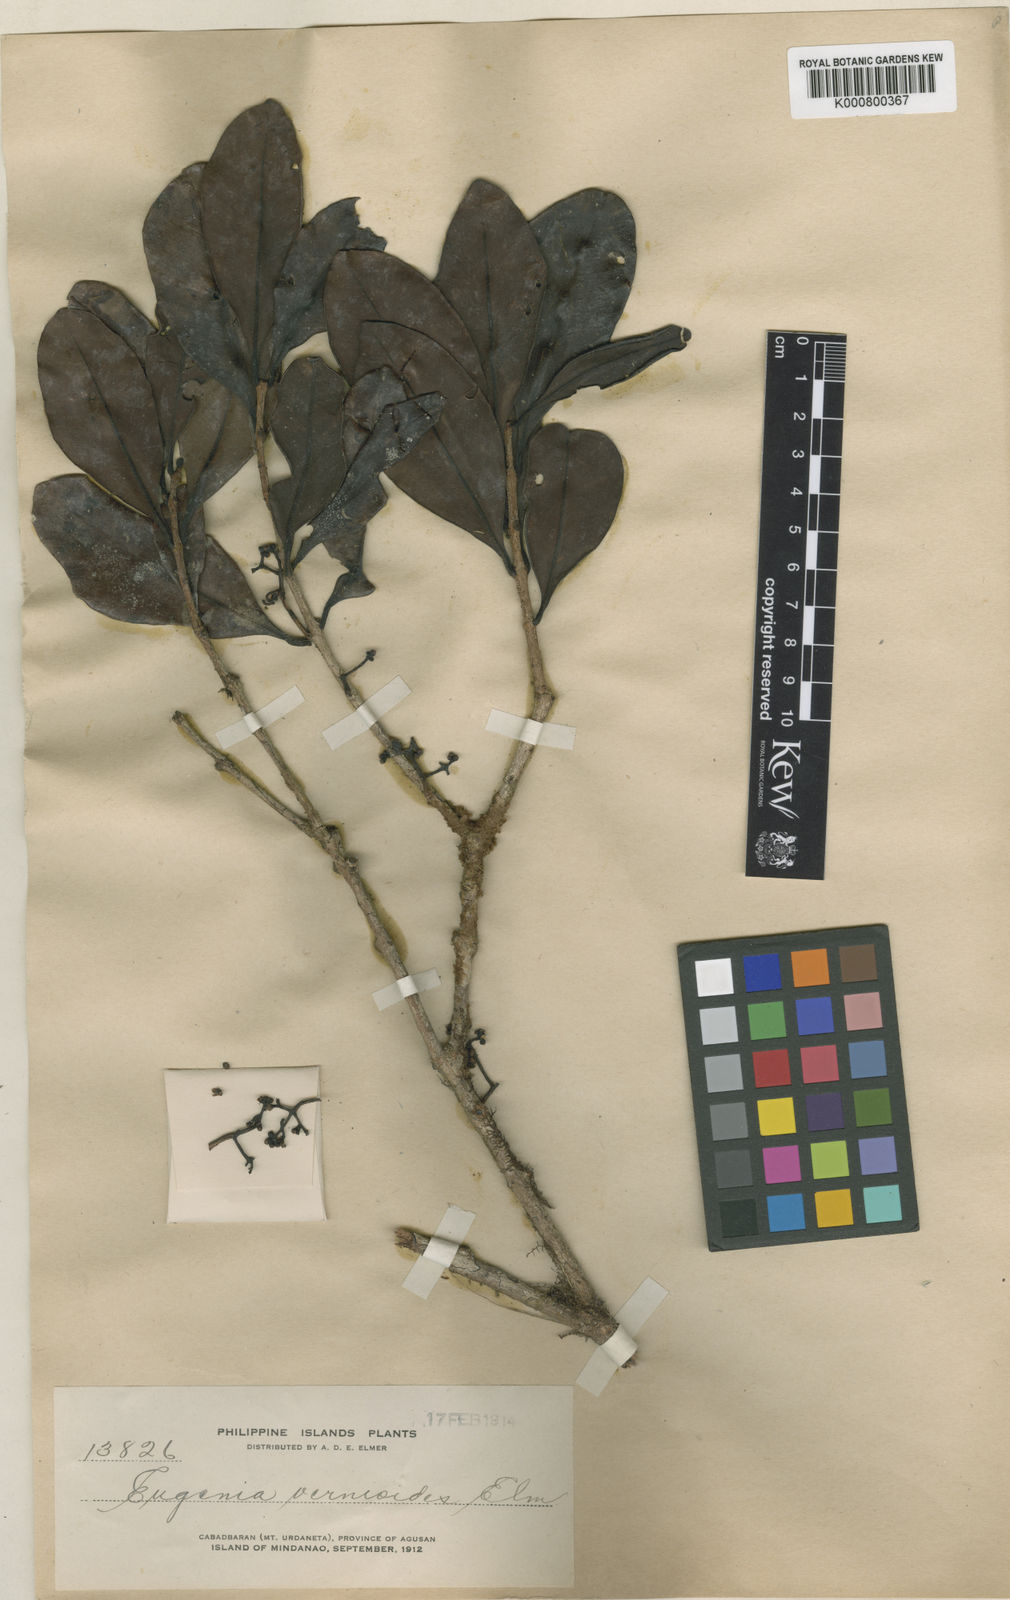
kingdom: Plantae
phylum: Tracheophyta
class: Magnoliopsida
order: Myrtales
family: Myrtaceae
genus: Syzygium
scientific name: Syzygium vernonioides
